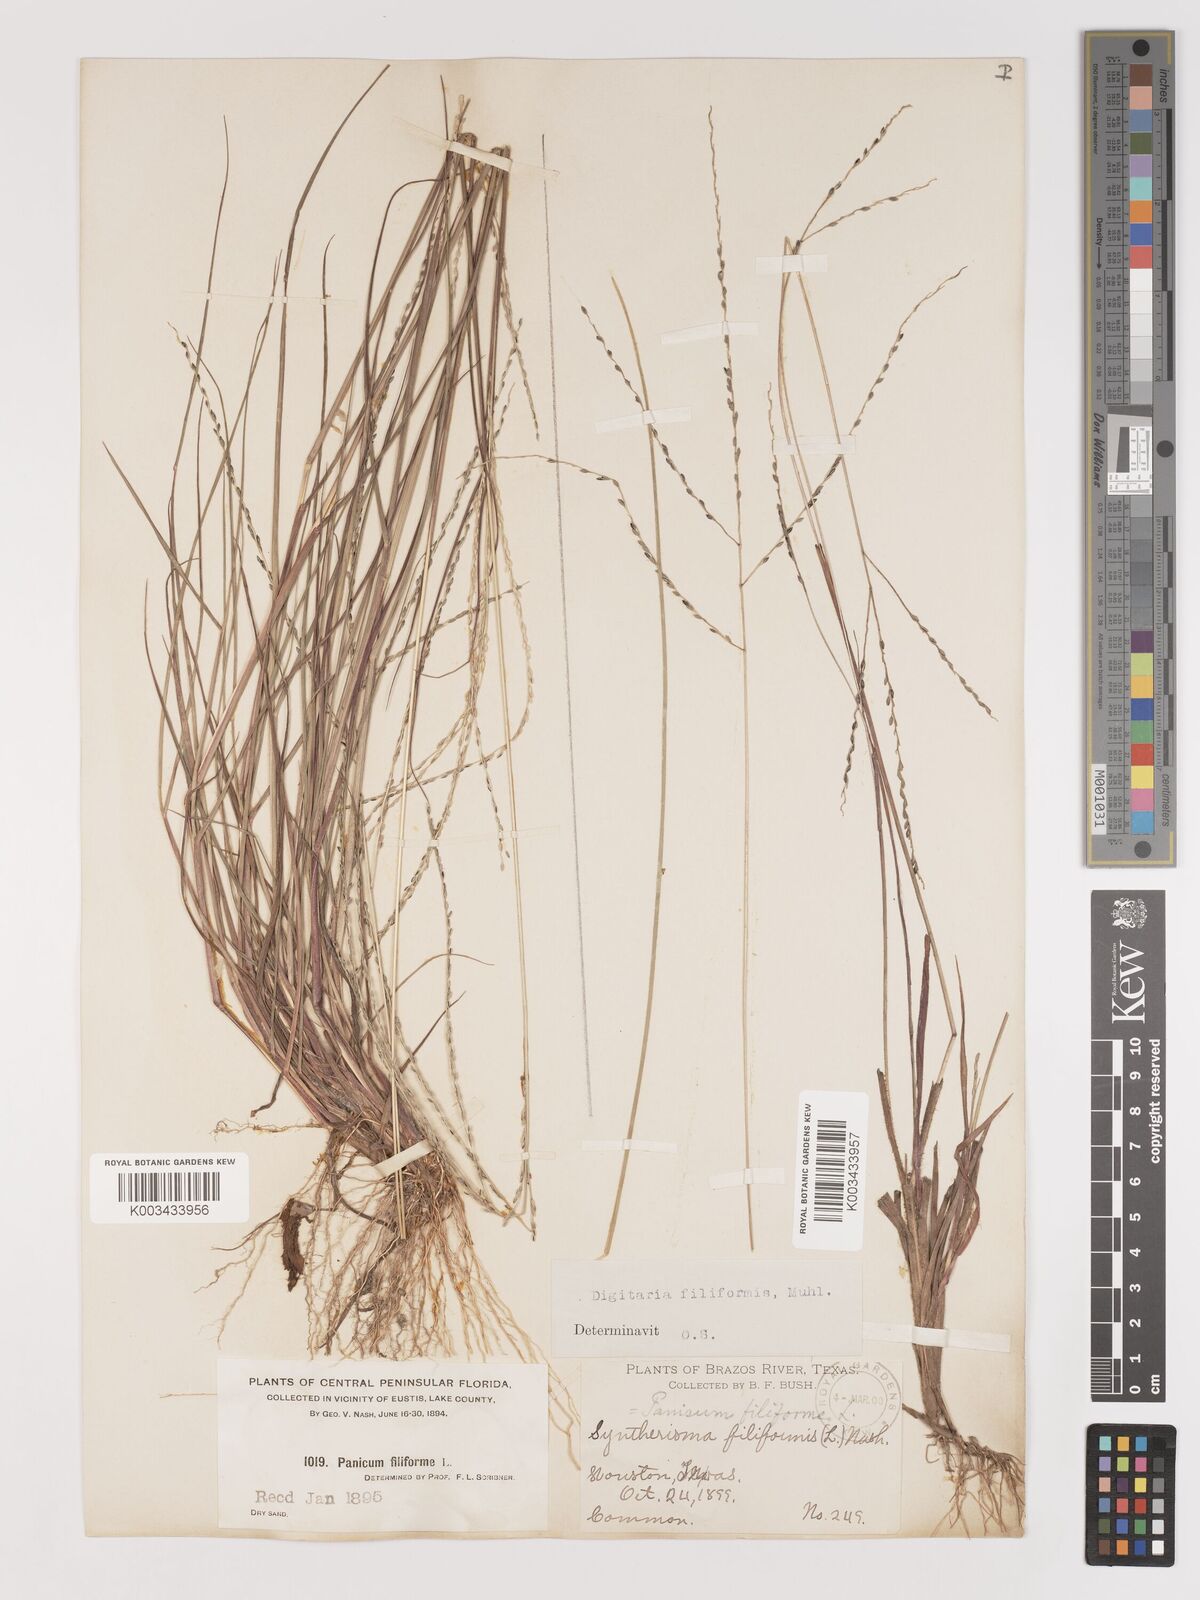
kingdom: Plantae
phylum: Tracheophyta
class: Liliopsida
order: Poales
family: Poaceae
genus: Digitaria
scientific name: Digitaria filiformis
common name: Slender crabgrass
